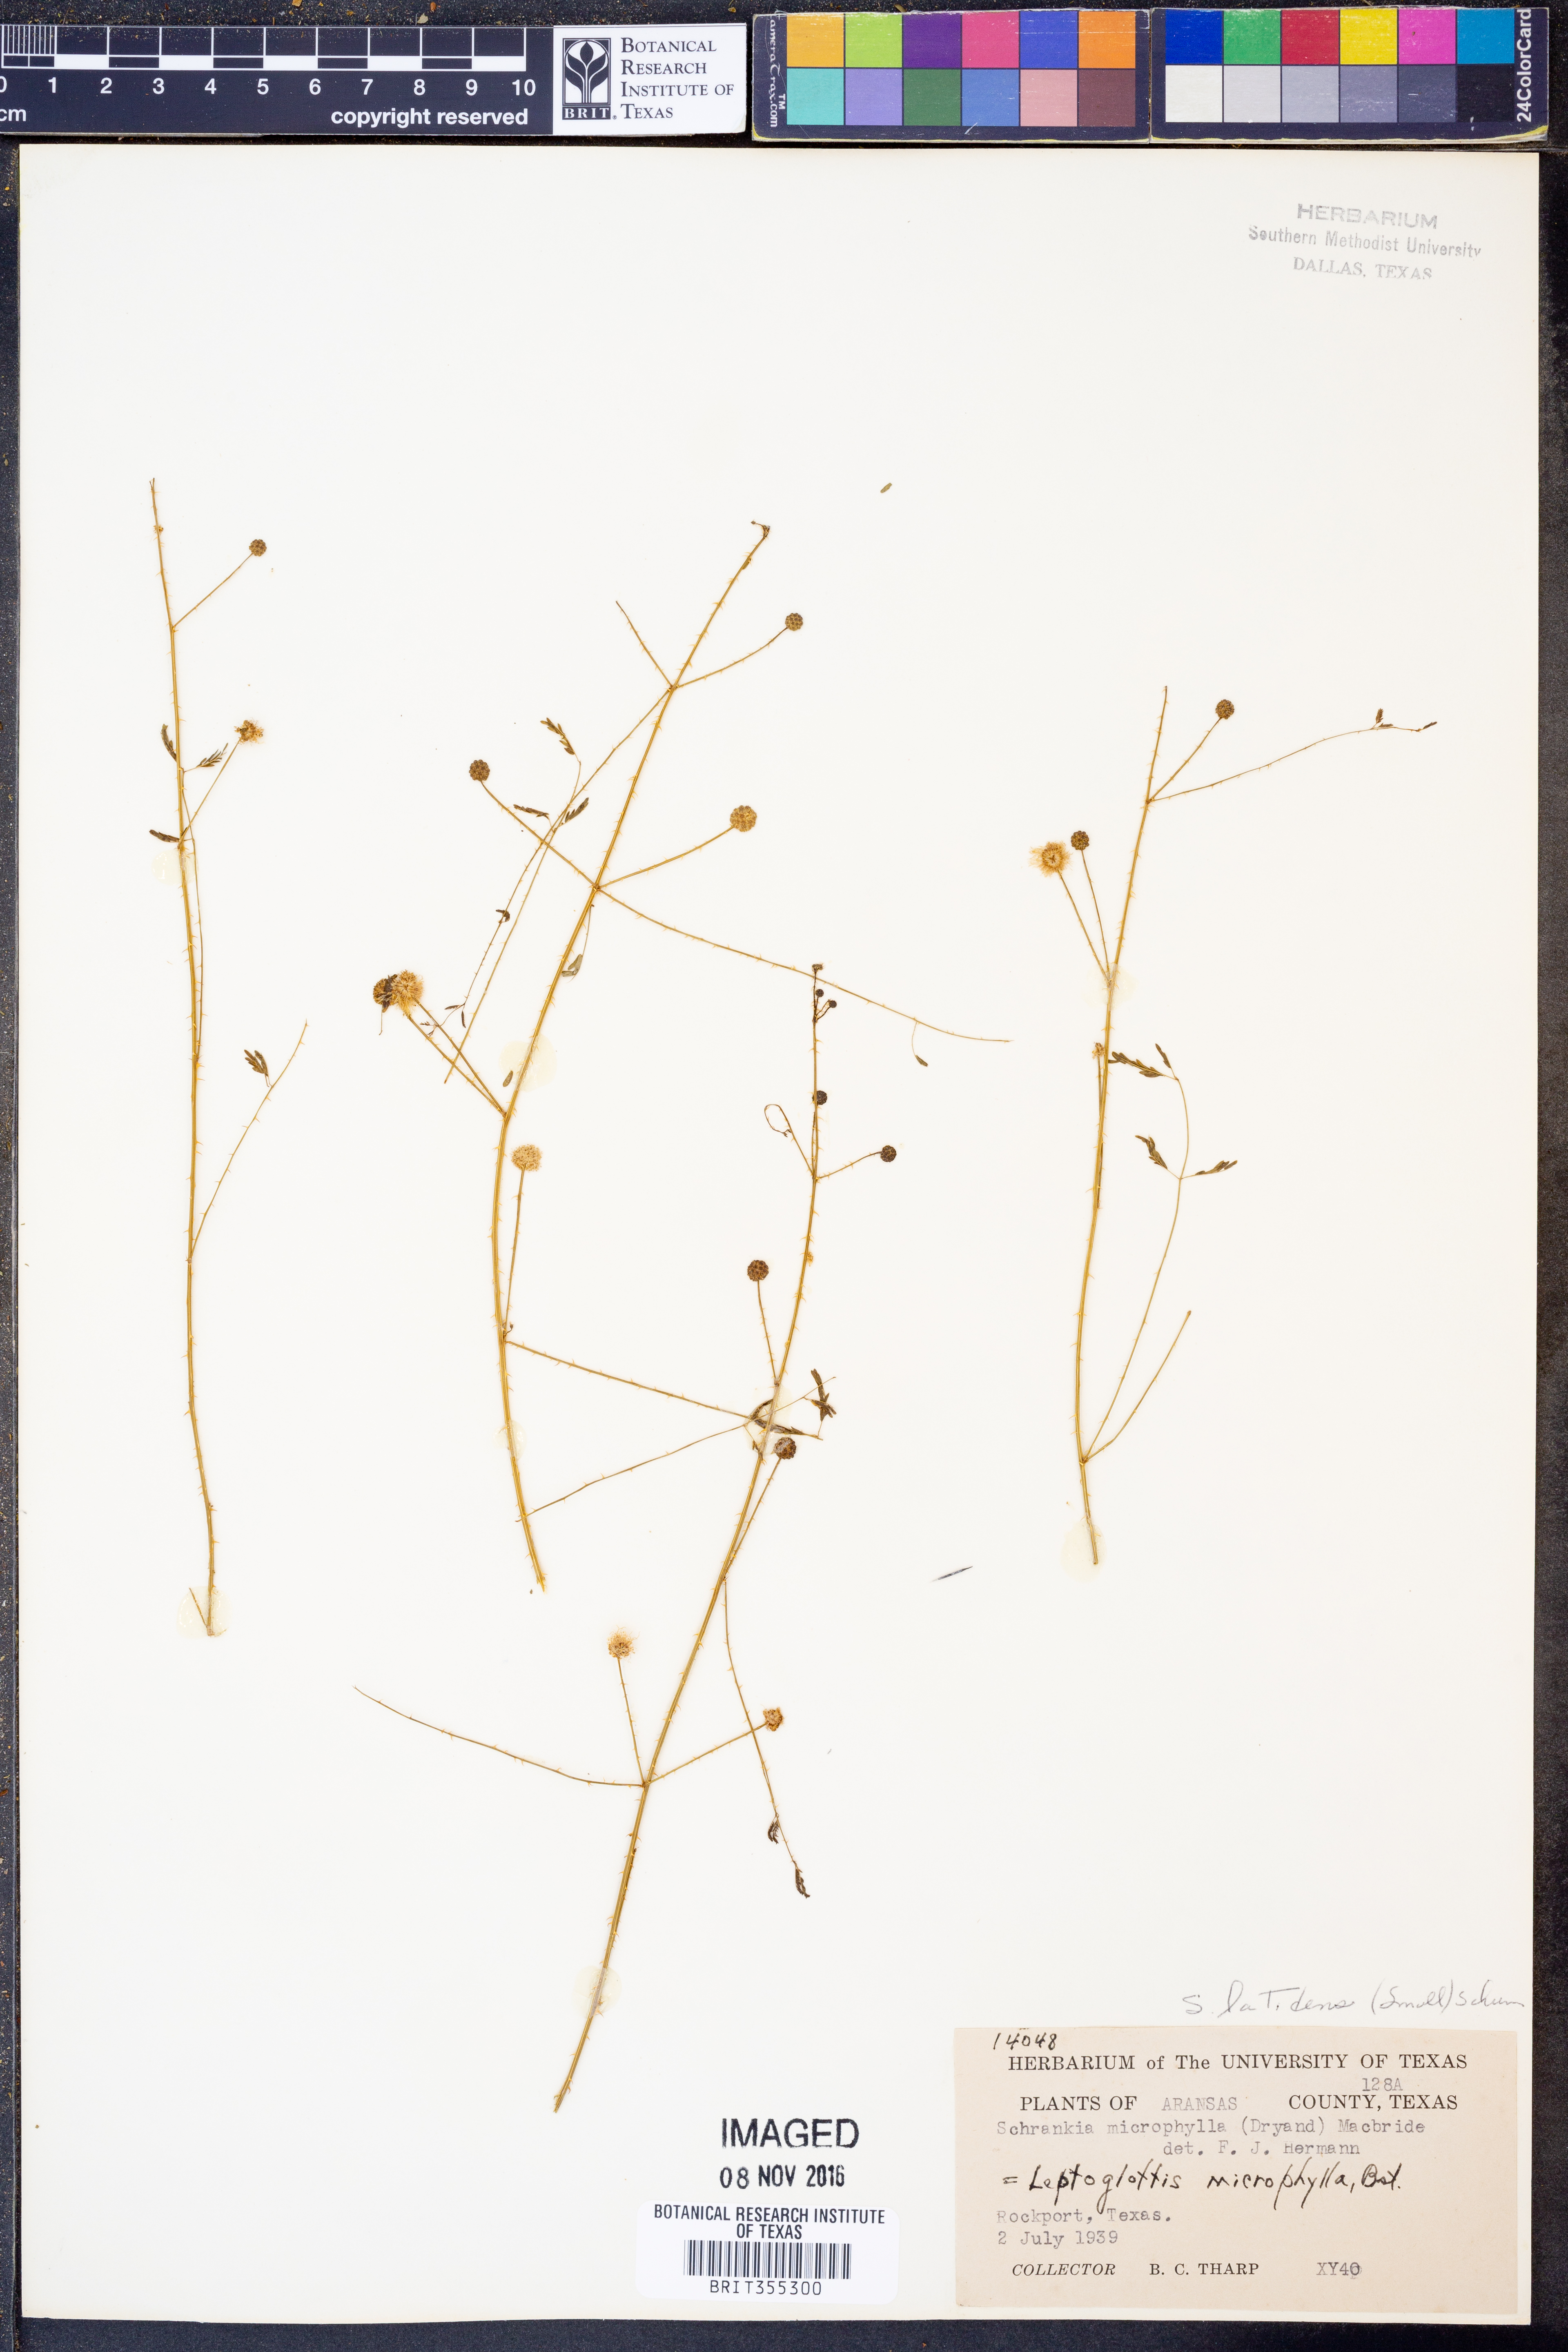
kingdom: Plantae
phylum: Tracheophyta
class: Magnoliopsida
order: Fabales
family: Fabaceae
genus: Mimosa
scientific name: Mimosa quadrivalvis
